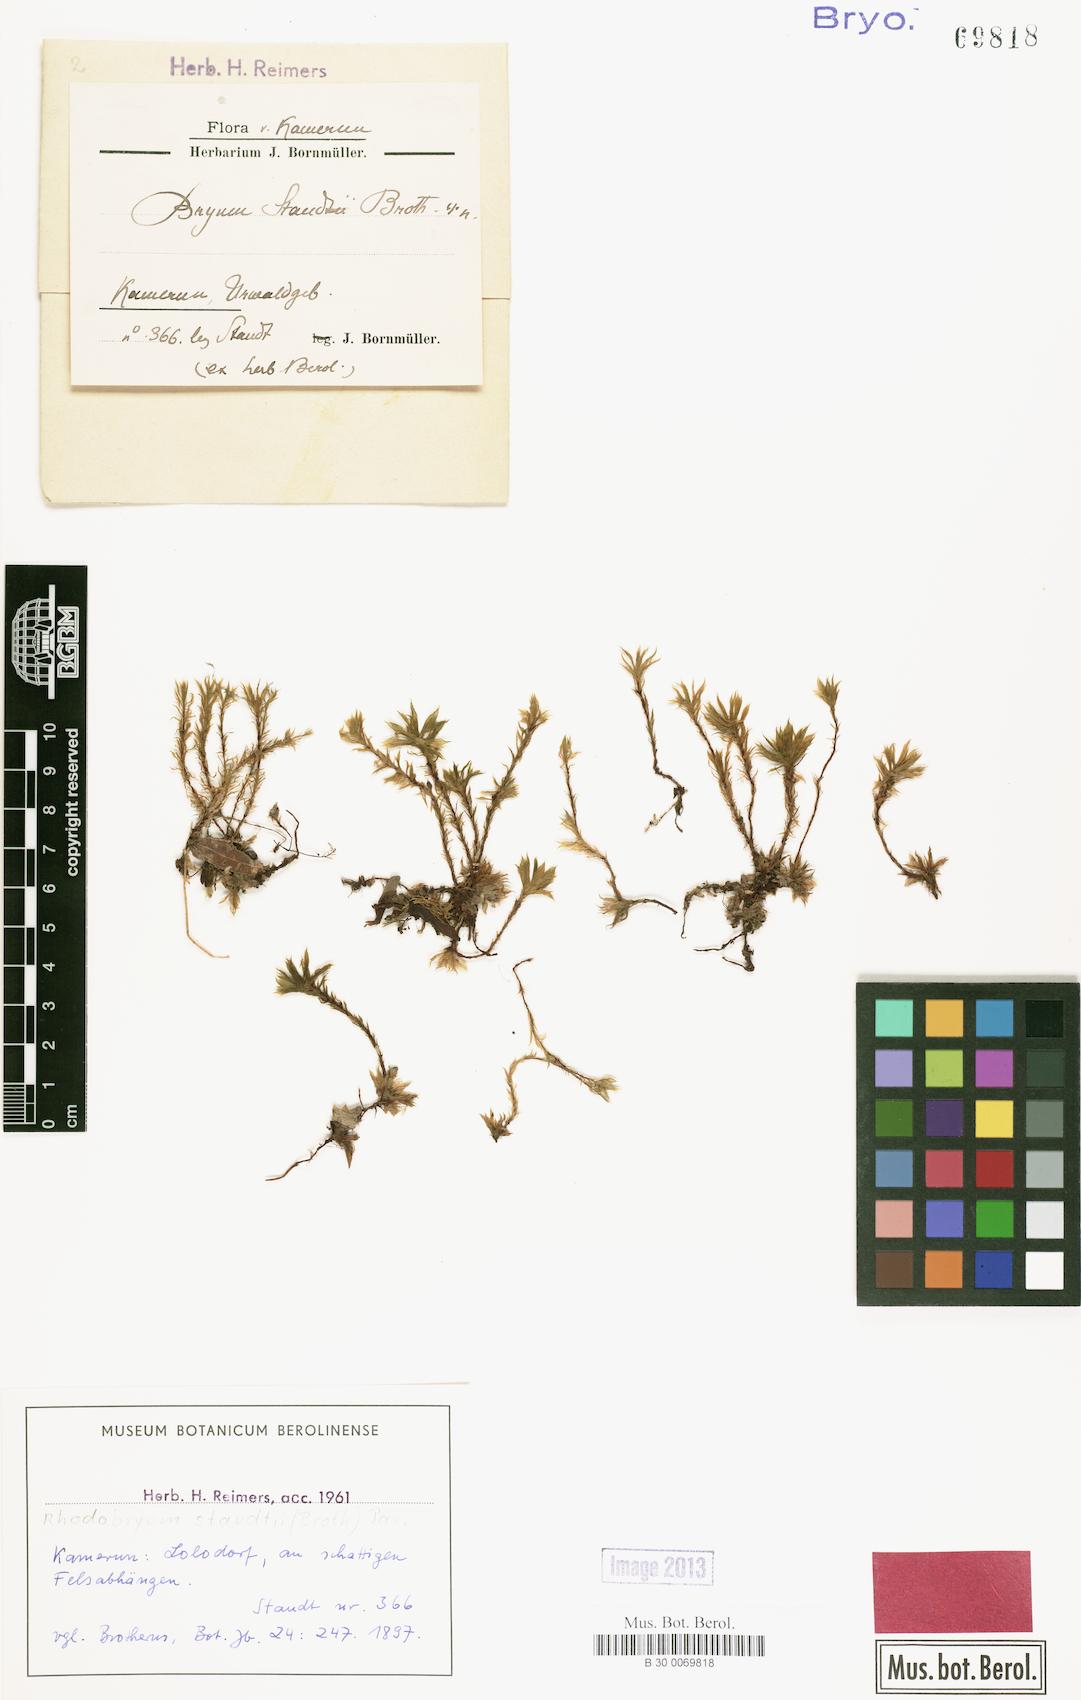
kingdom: Plantae
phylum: Bryophyta
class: Bryopsida
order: Bryales
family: Bryaceae
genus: Rhodobryum
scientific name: Rhodobryum staudtii
